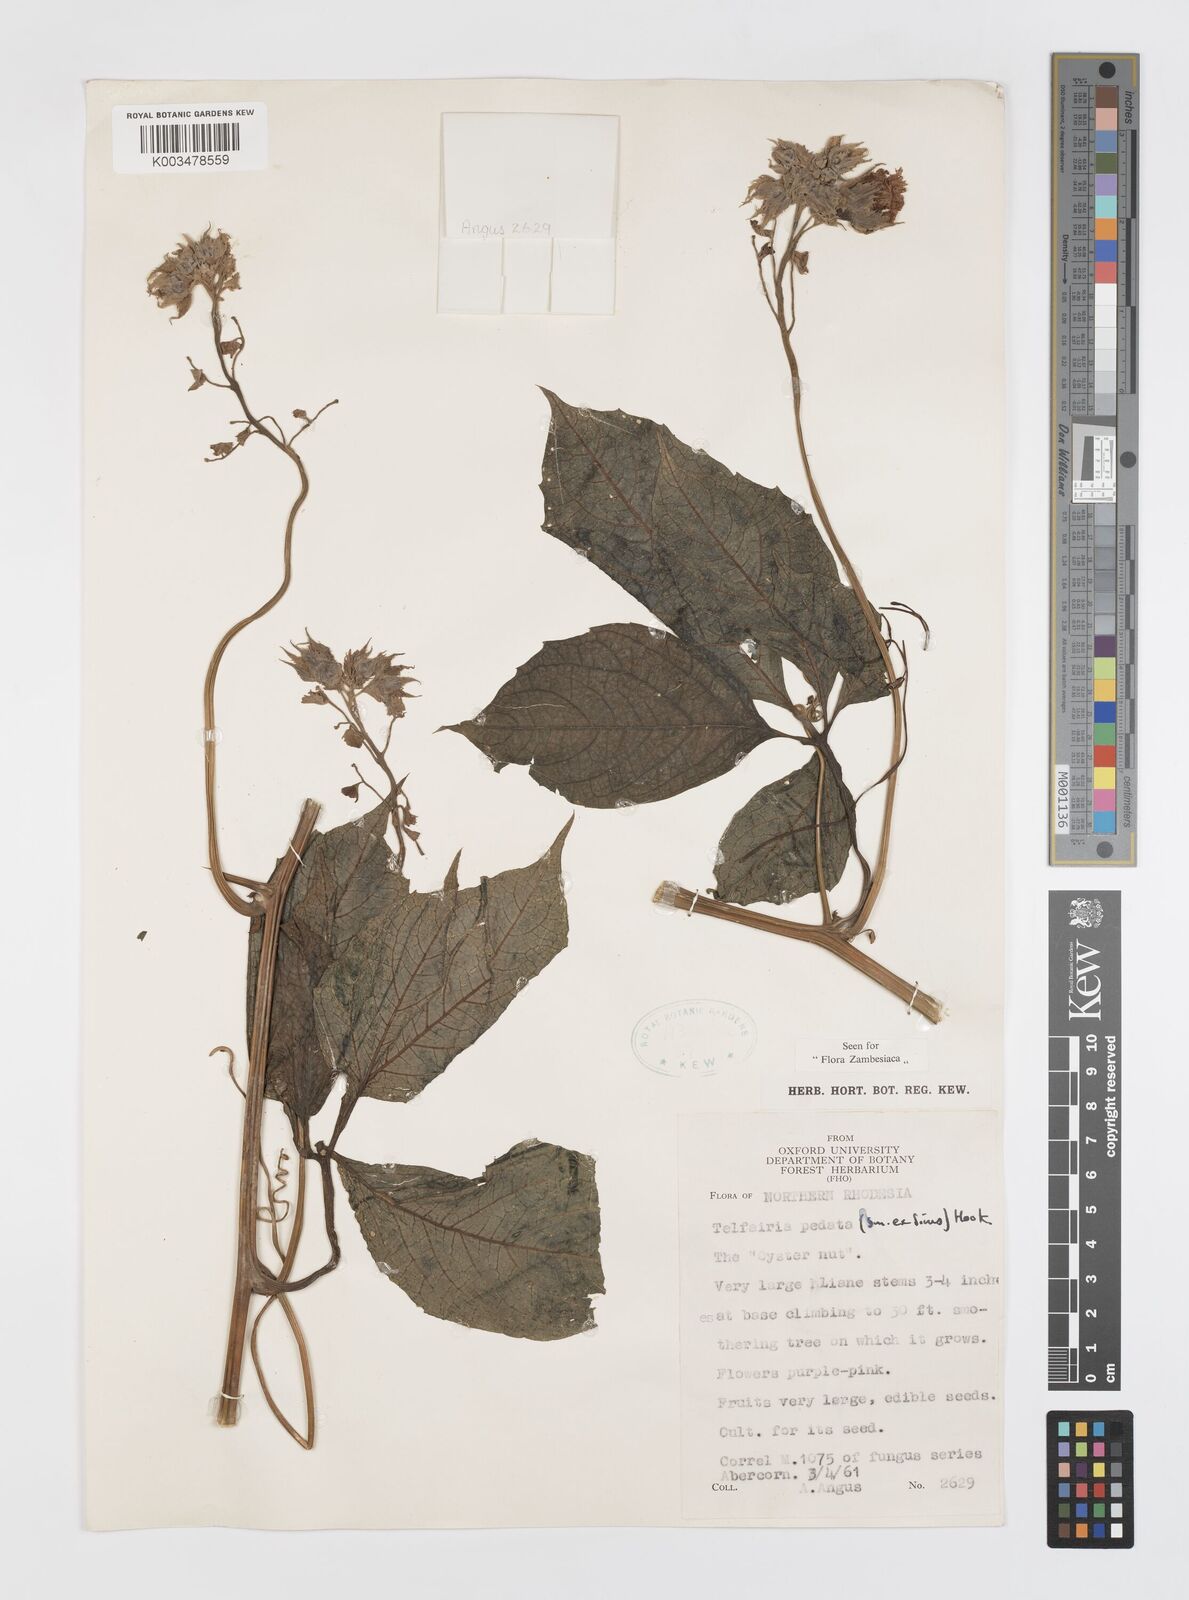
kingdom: Plantae
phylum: Tracheophyta
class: Magnoliopsida
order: Cucurbitales
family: Cucurbitaceae
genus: Telfairia
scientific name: Telfairia pedata
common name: Zanzibar oilvine
